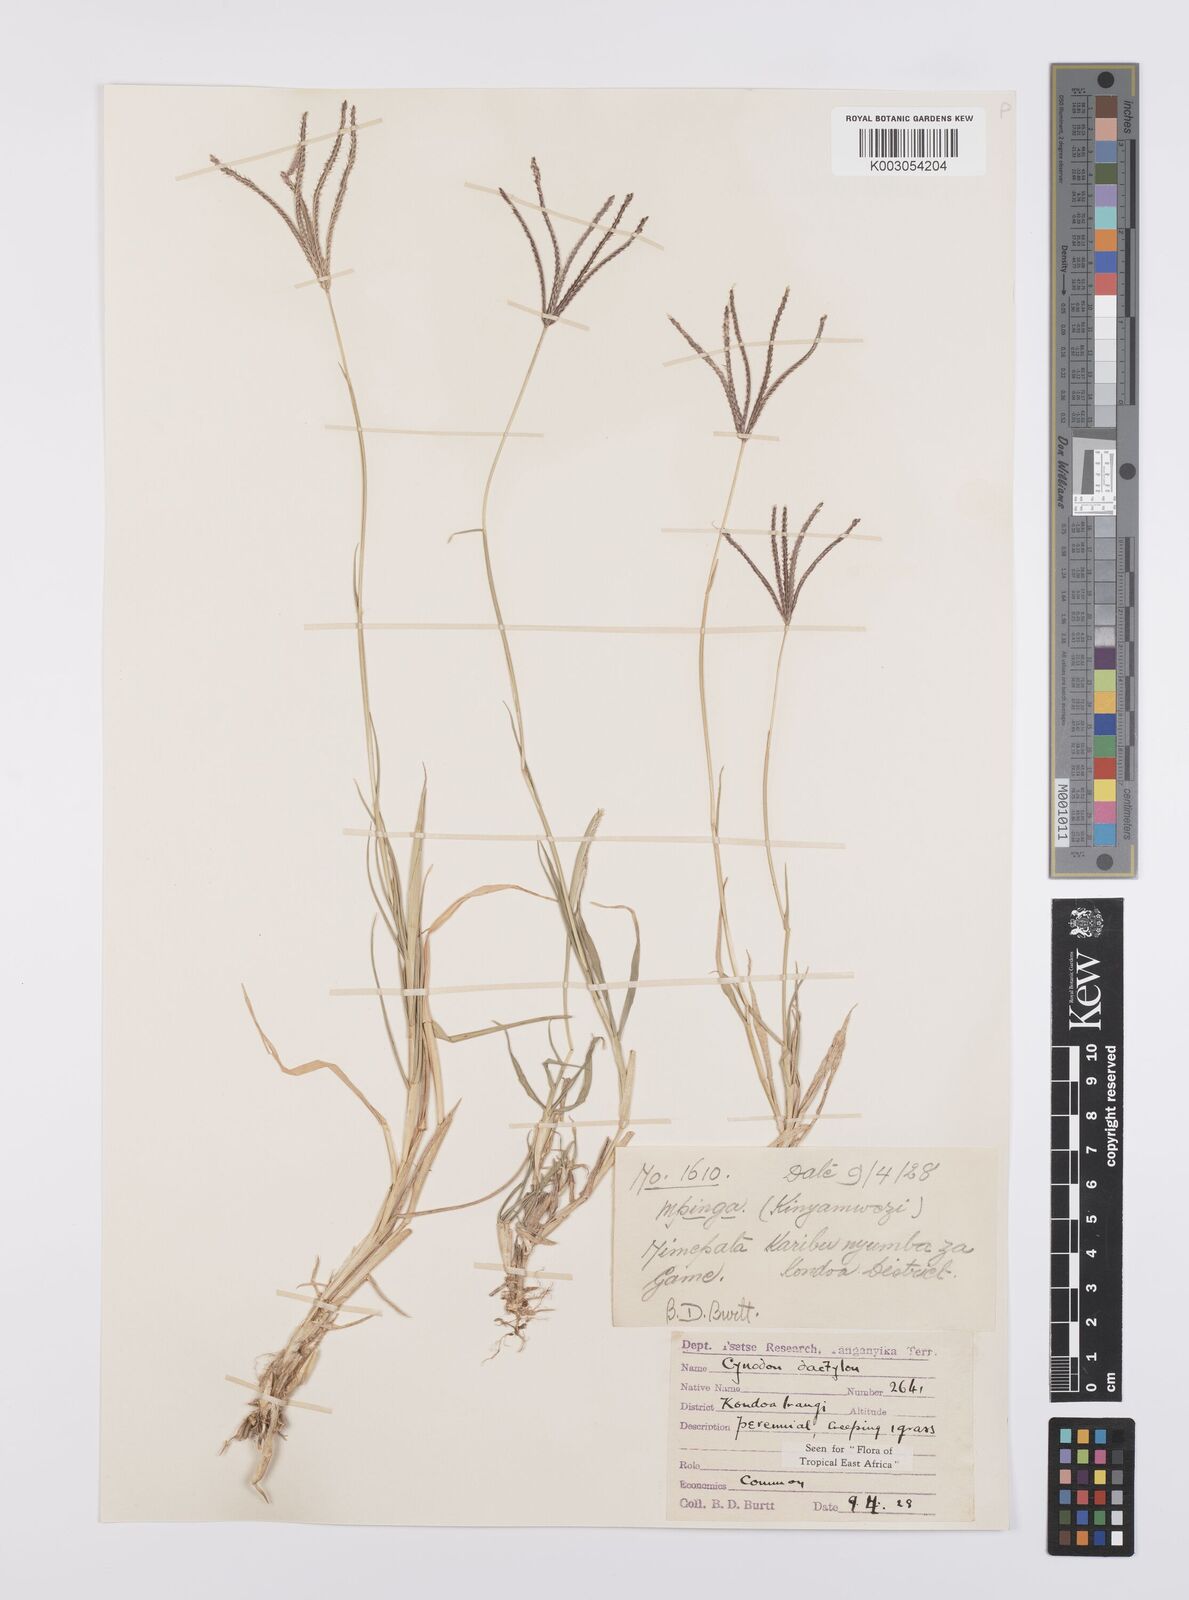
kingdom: Plantae
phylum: Tracheophyta
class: Liliopsida
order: Poales
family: Poaceae
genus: Cynodon
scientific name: Cynodon dactylon
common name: Bermuda grass
